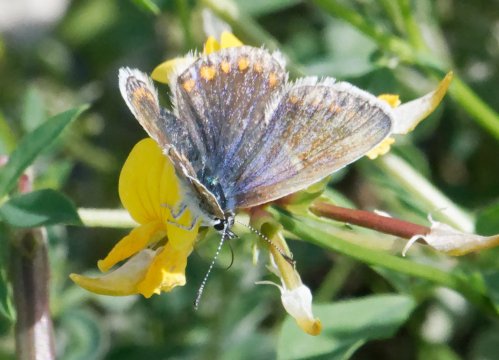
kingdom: Animalia
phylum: Arthropoda
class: Insecta
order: Lepidoptera
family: Lycaenidae
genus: Polyommatus
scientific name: Polyommatus icarus
